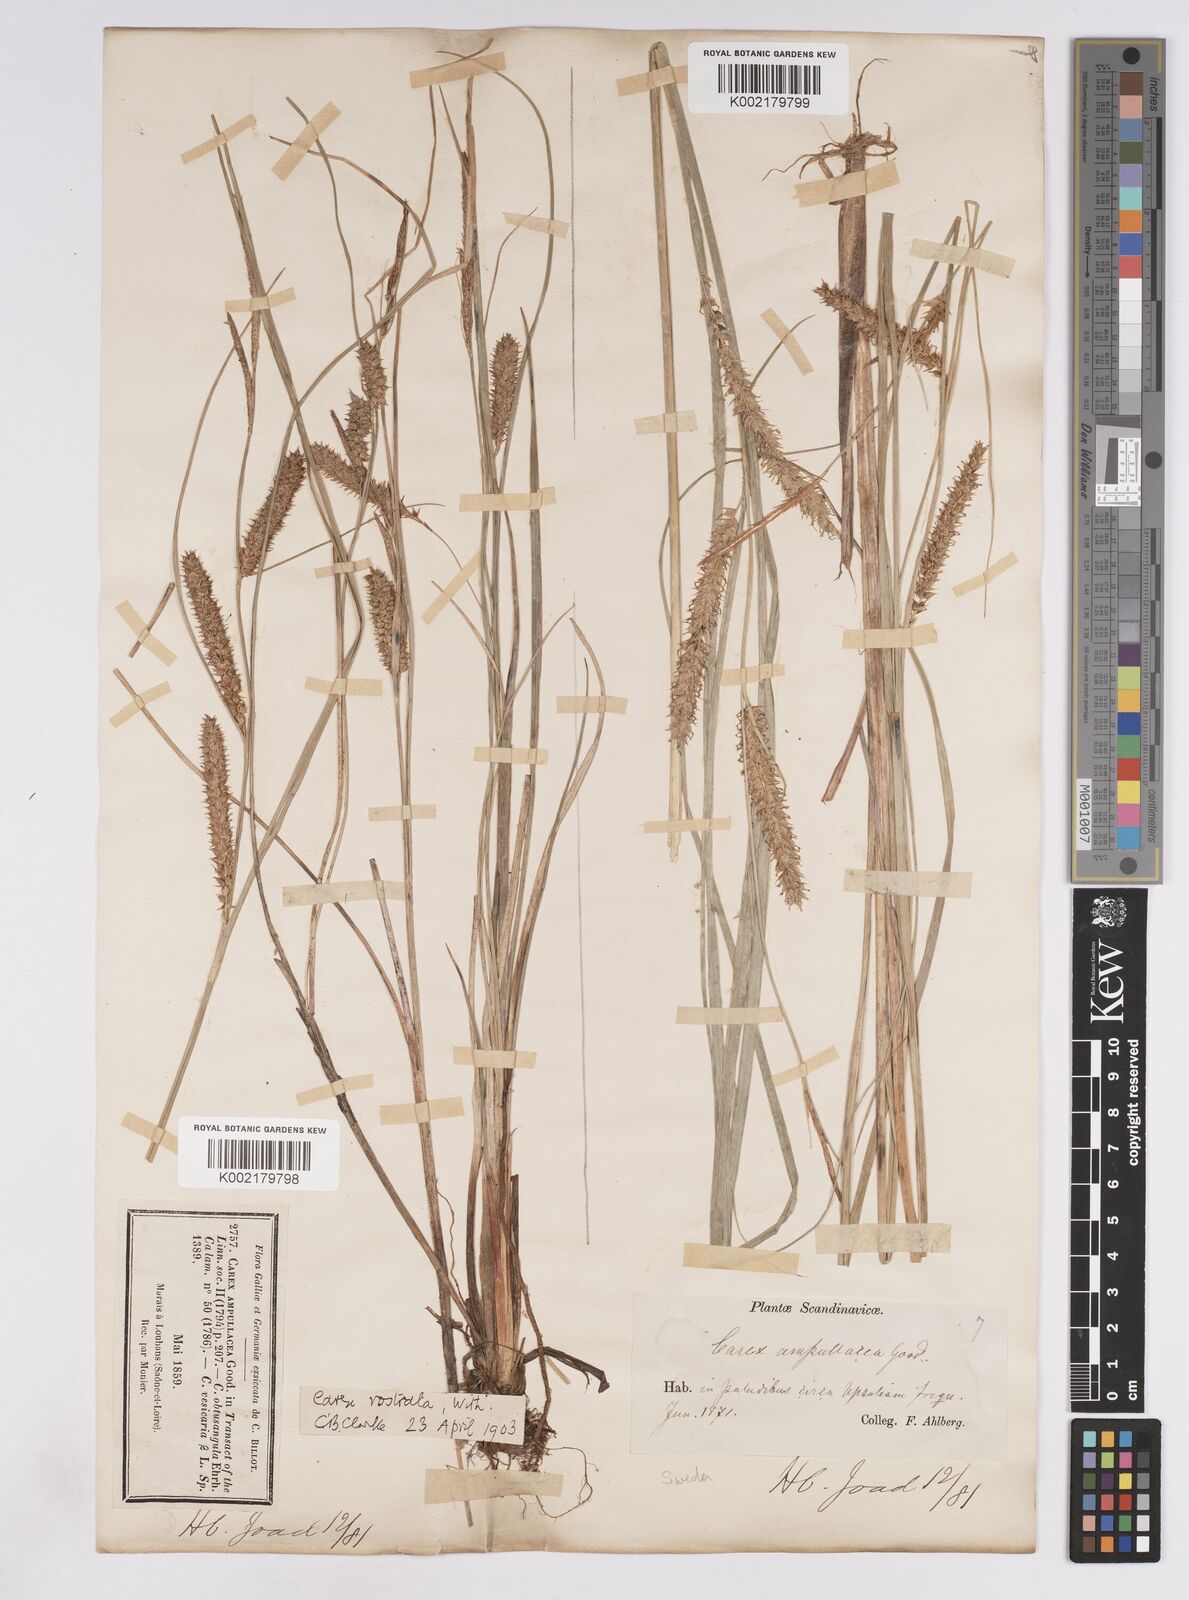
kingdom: Plantae
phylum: Tracheophyta
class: Liliopsida
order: Poales
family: Cyperaceae
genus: Carex
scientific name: Carex rostrata
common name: Bottle sedge
